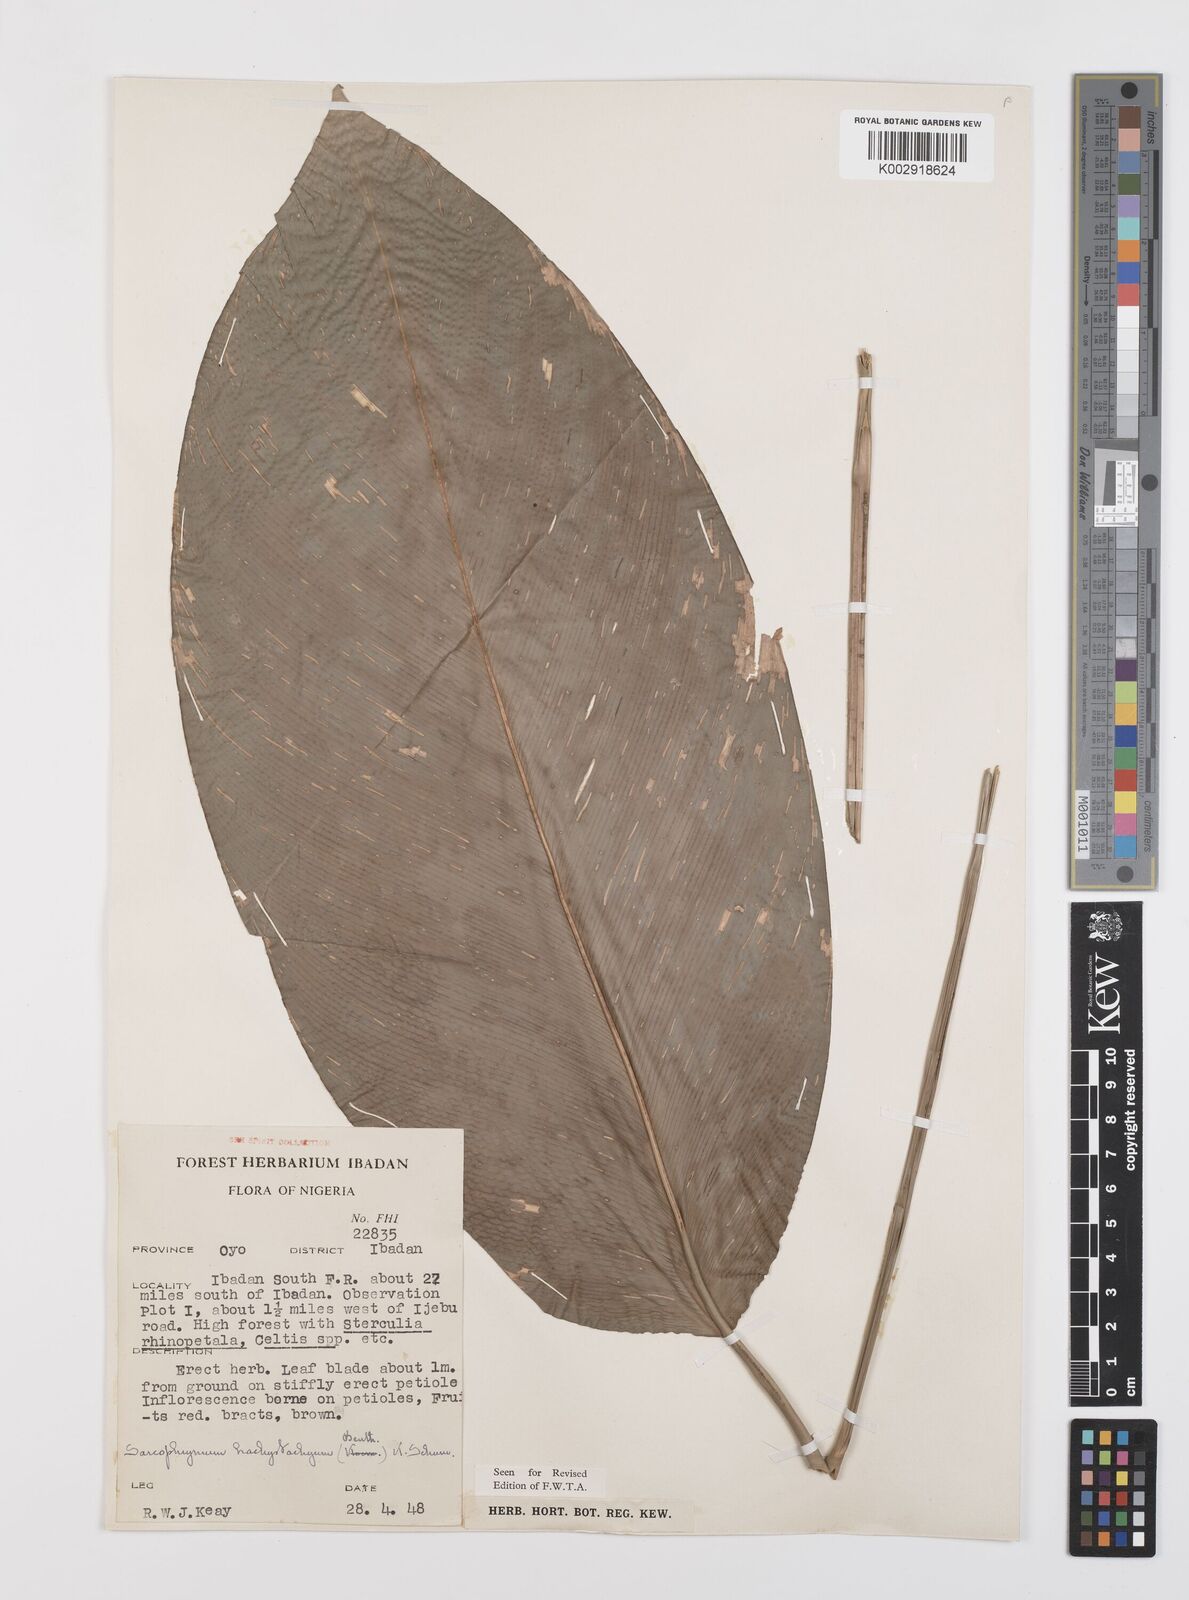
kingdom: Plantae
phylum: Tracheophyta
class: Liliopsida
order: Zingiberales
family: Marantaceae
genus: Sarcophrynium
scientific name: Sarcophrynium brachystachyum
